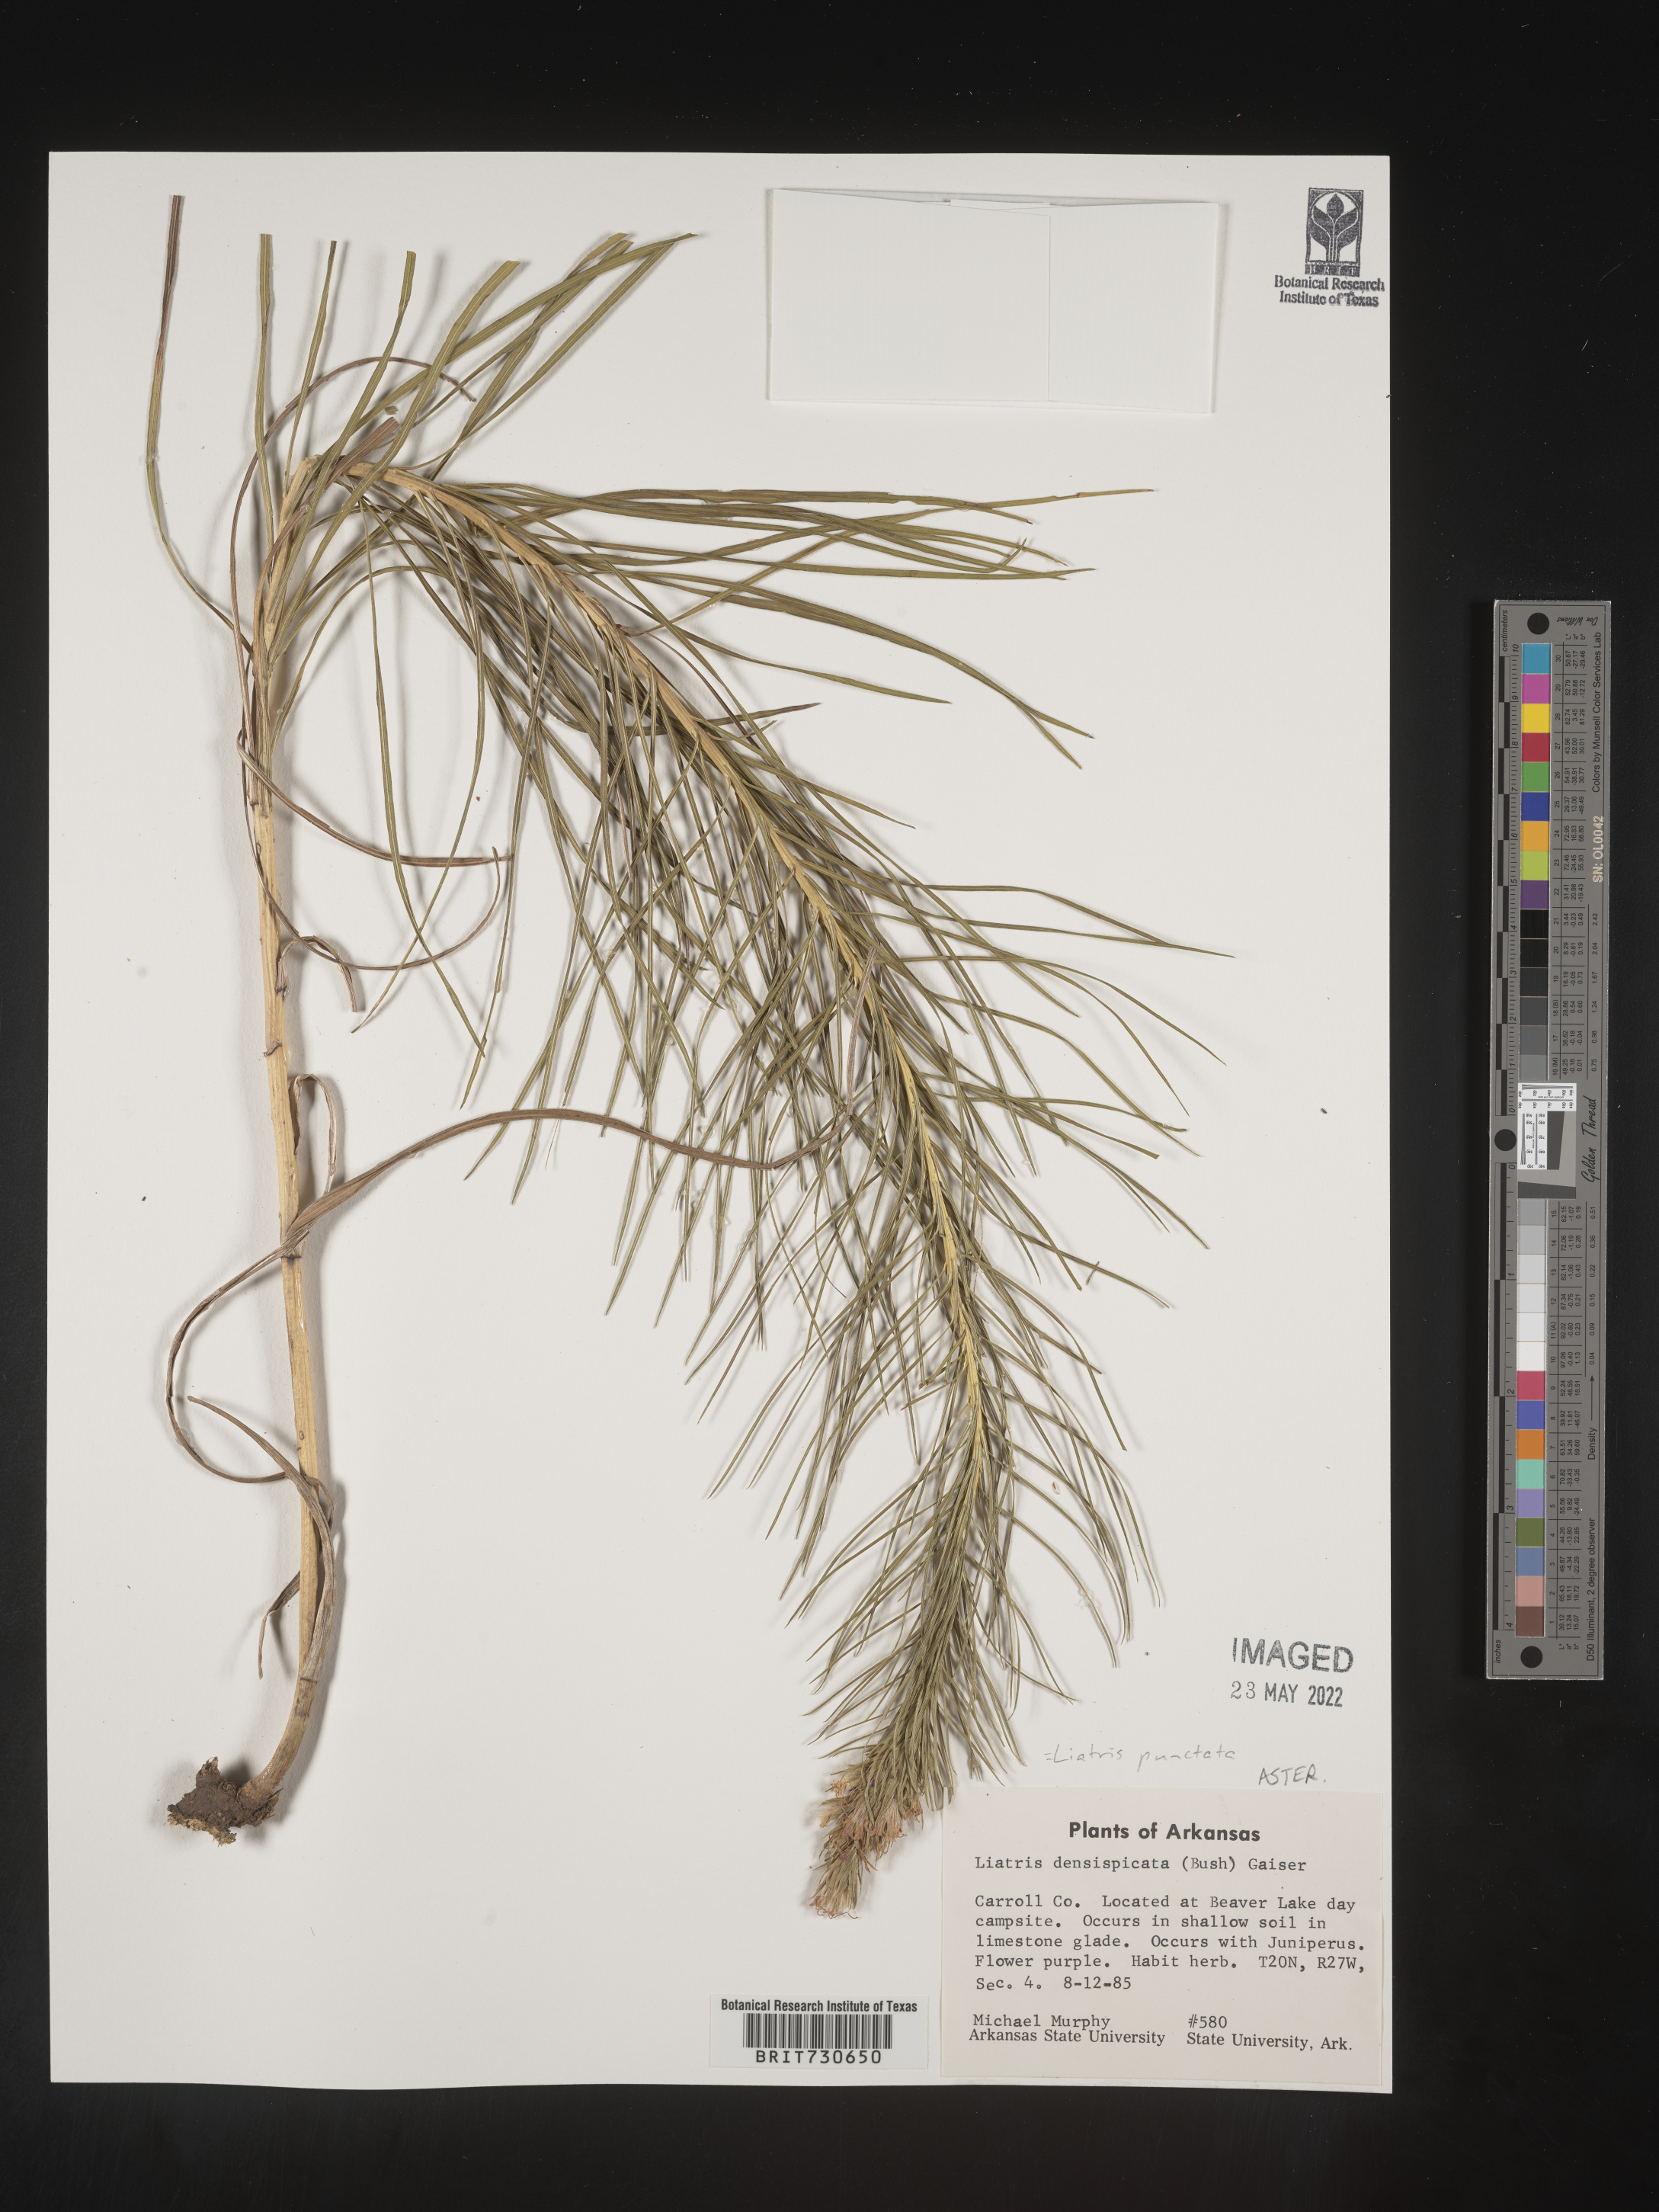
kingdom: Plantae
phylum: Tracheophyta
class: Magnoliopsida
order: Asterales
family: Asteraceae
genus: Liatris
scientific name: Liatris punctata
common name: Dotted gayfeather
